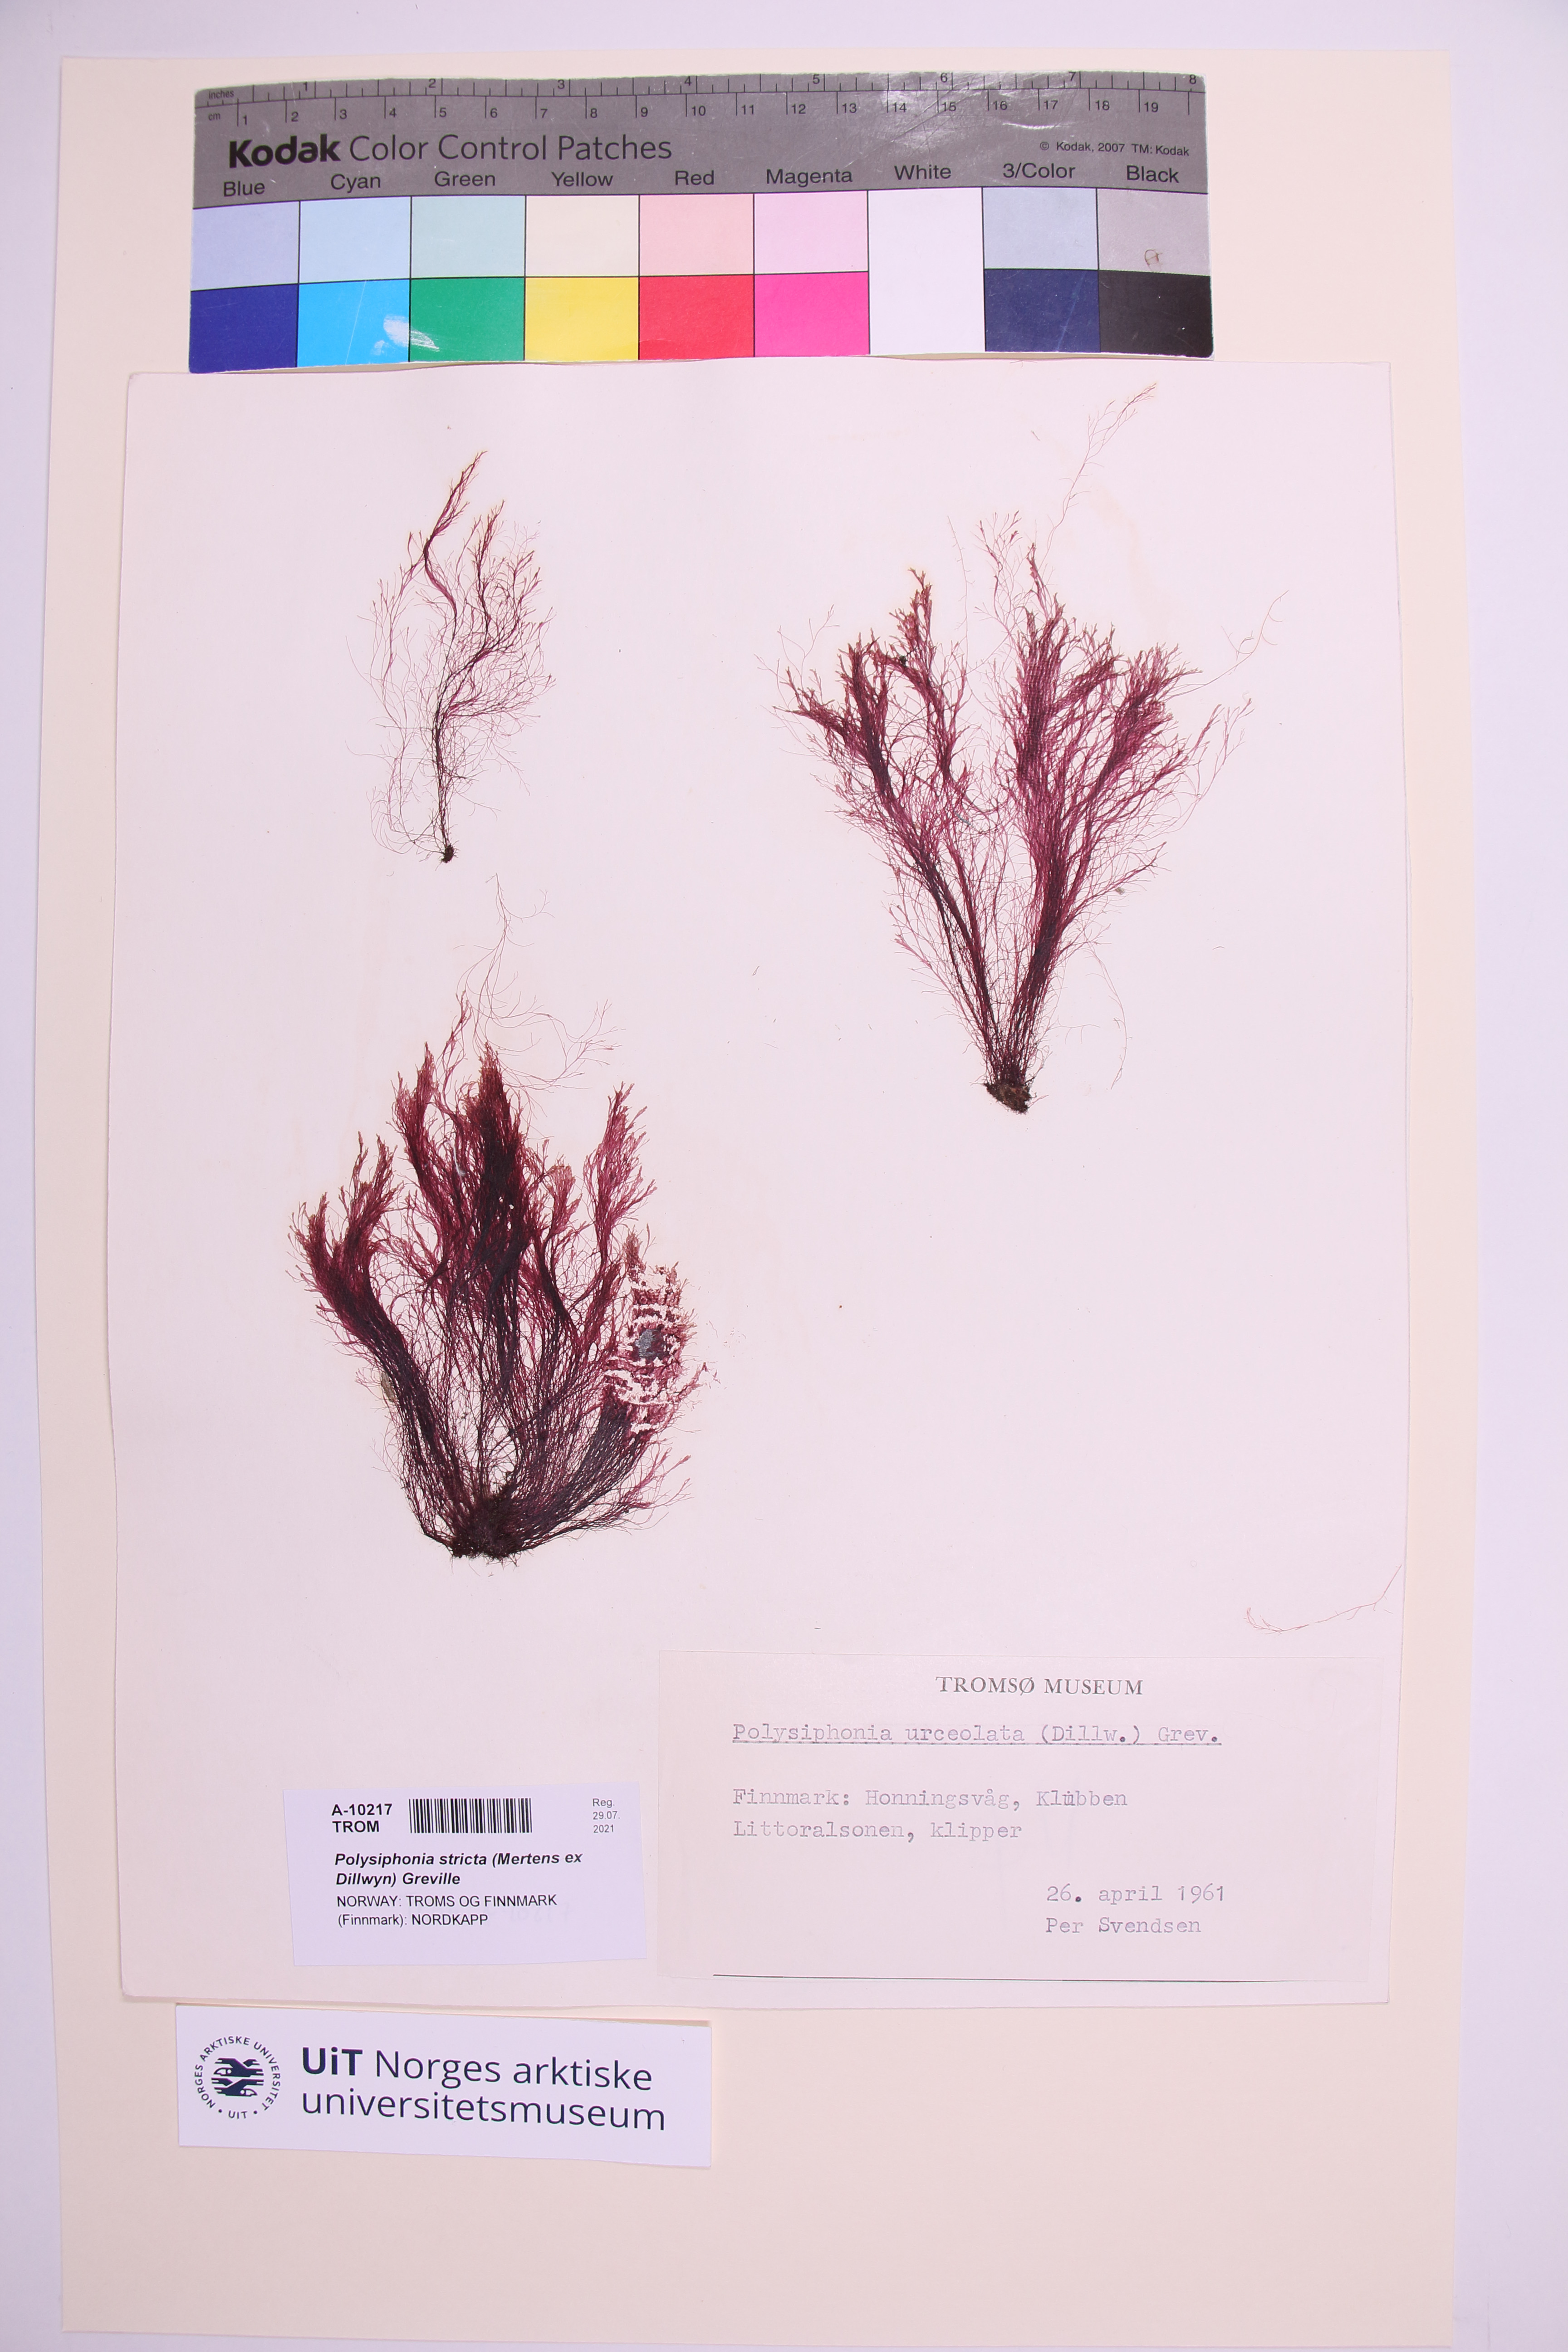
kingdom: Plantae
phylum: Rhodophyta
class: Florideophyceae
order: Ceramiales
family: Rhodomelaceae
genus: Polysiphonia
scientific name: Polysiphonia stricta
